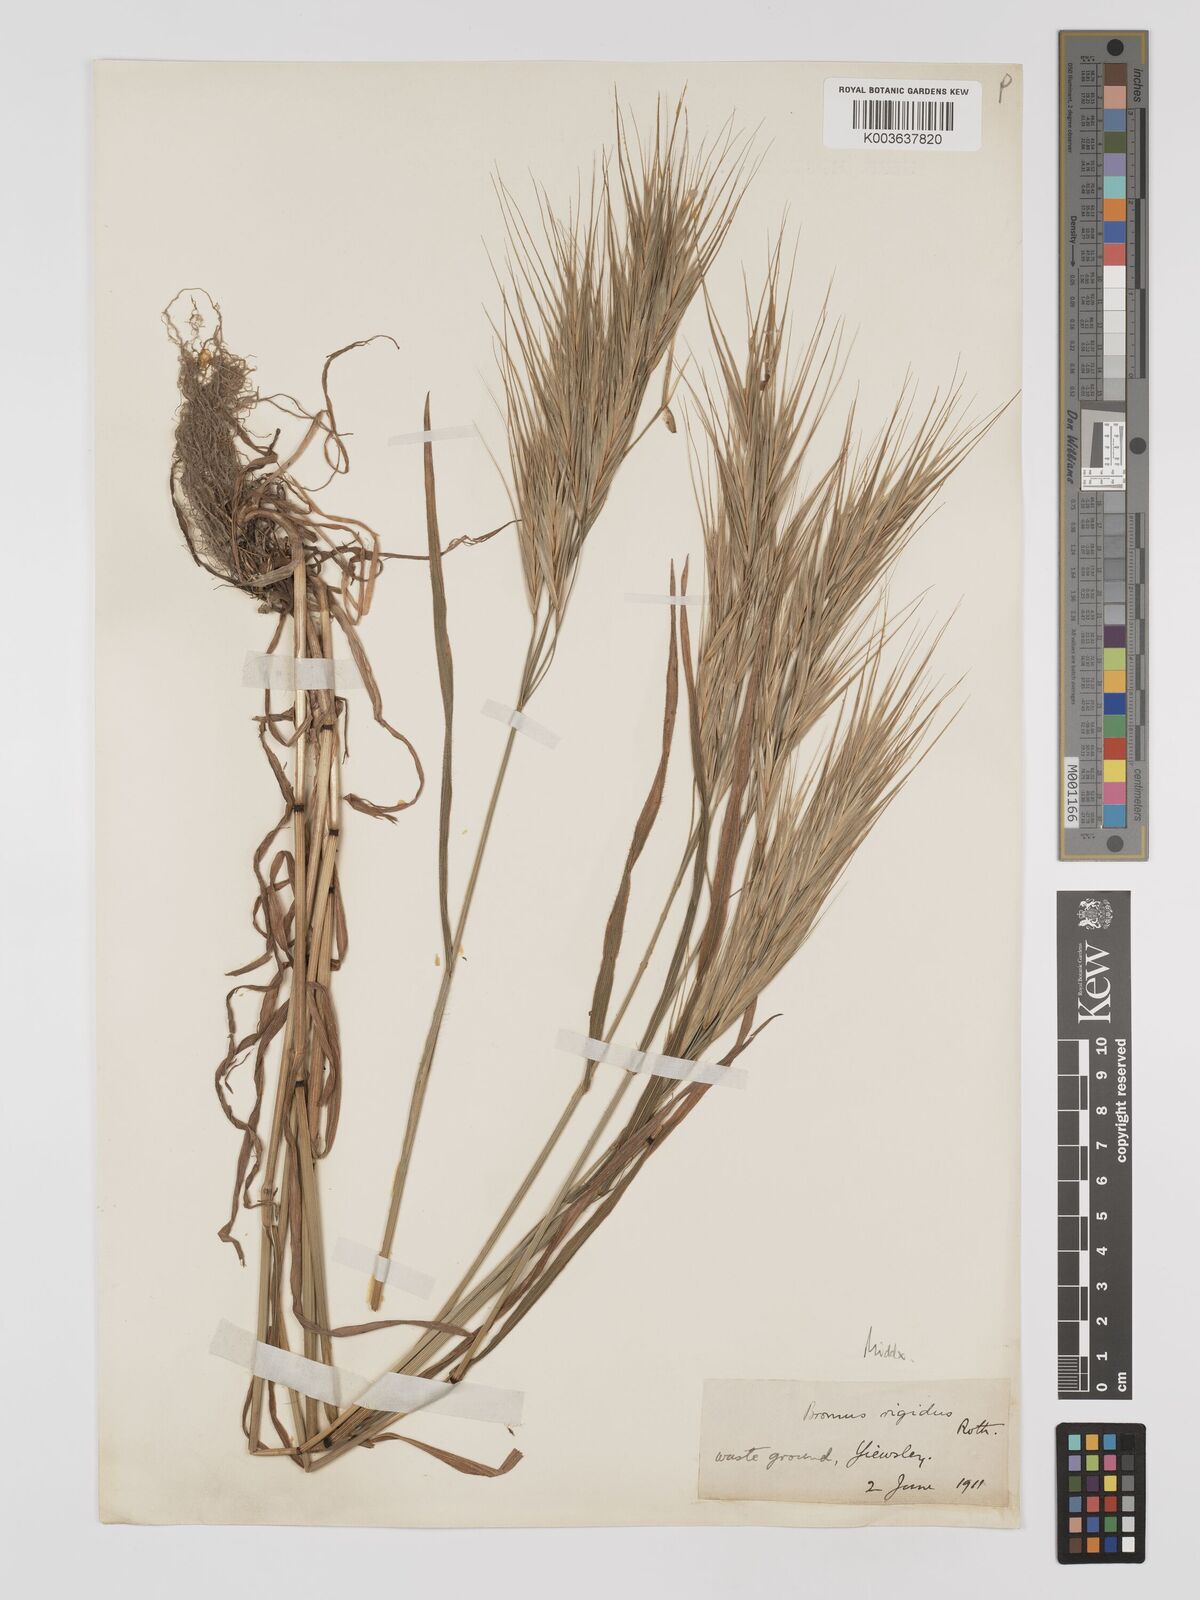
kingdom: Plantae
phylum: Tracheophyta
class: Liliopsida
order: Poales
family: Poaceae
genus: Bromus
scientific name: Bromus
